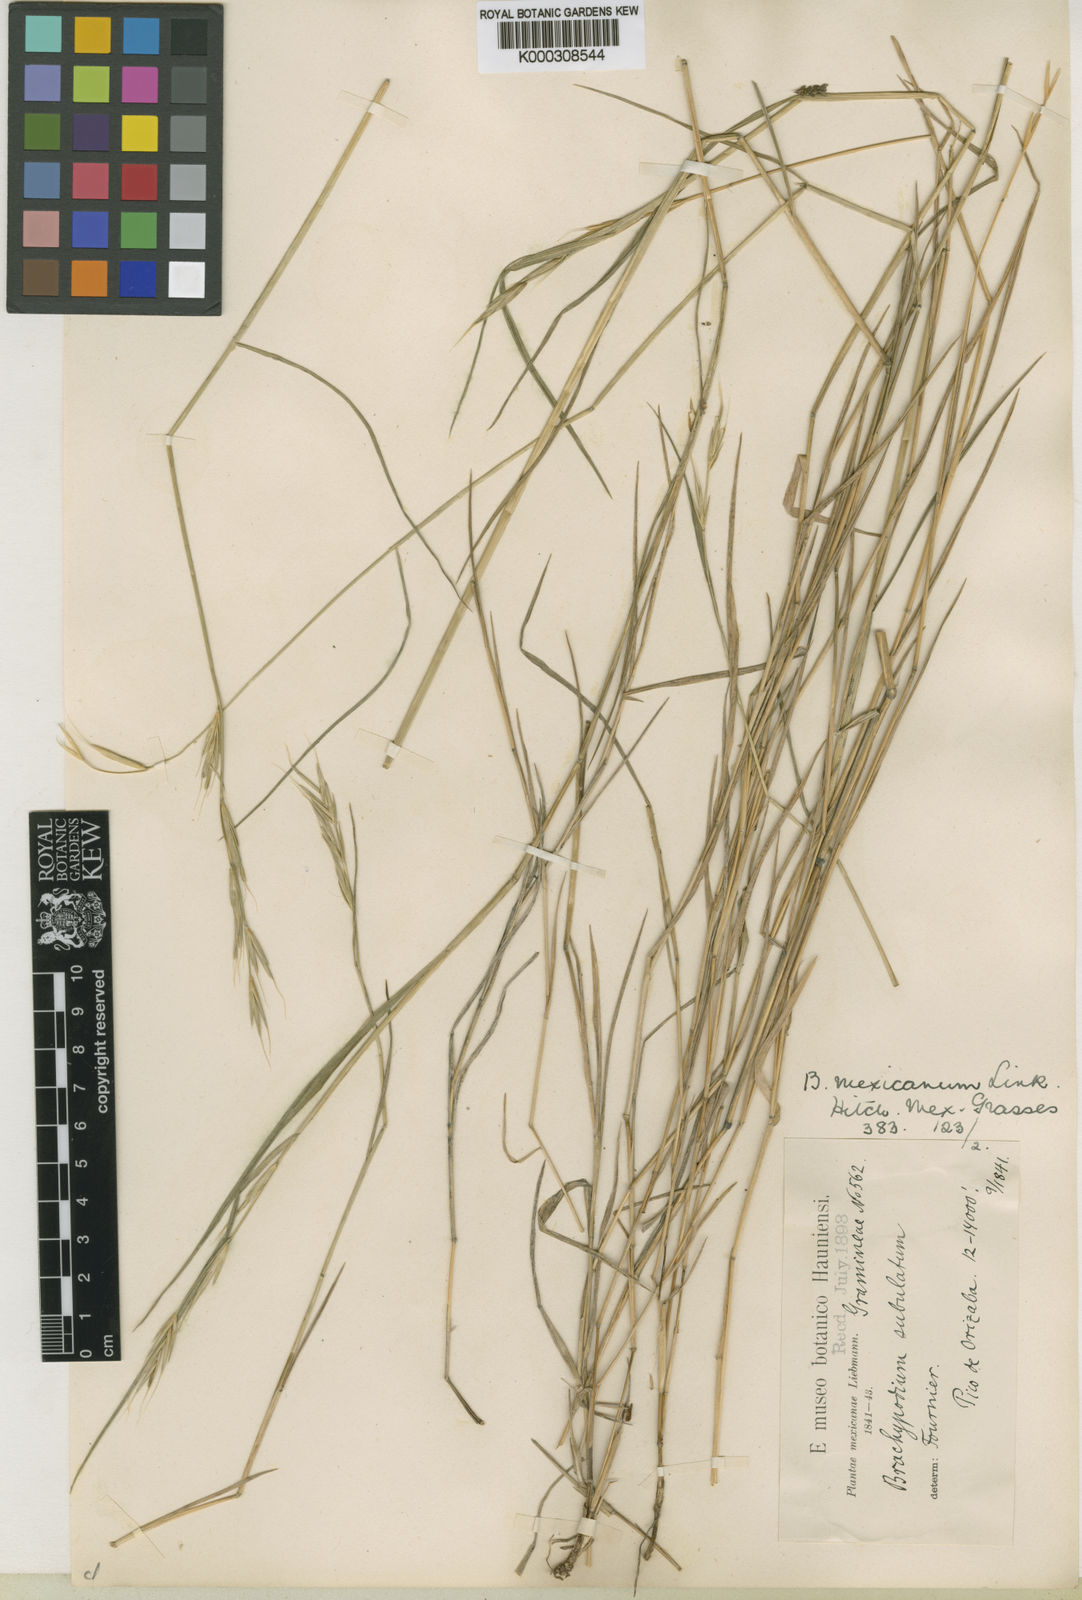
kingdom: Plantae
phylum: Tracheophyta
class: Liliopsida
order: Poales
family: Poaceae
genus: Brachypodium
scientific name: Brachypodium mexicanum
